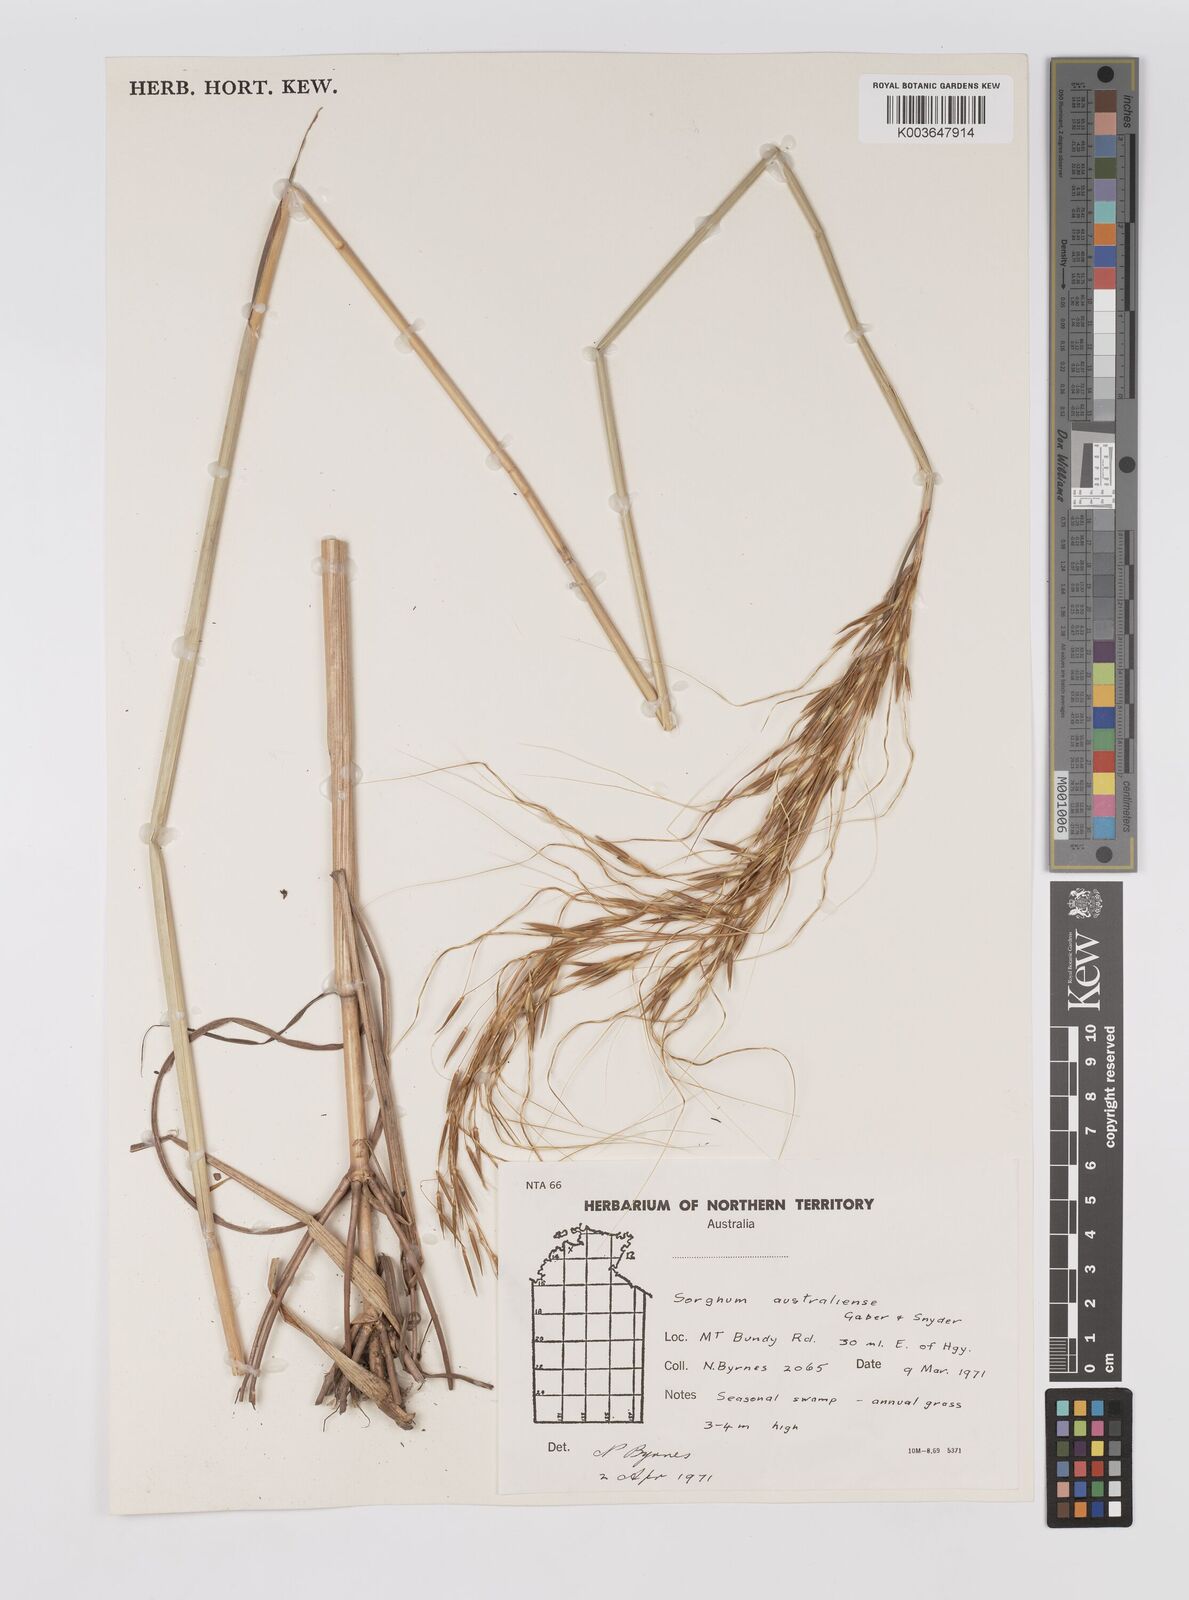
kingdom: Plantae
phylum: Tracheophyta
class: Liliopsida
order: Poales
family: Poaceae
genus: Sarga
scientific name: Sarga timorensis
